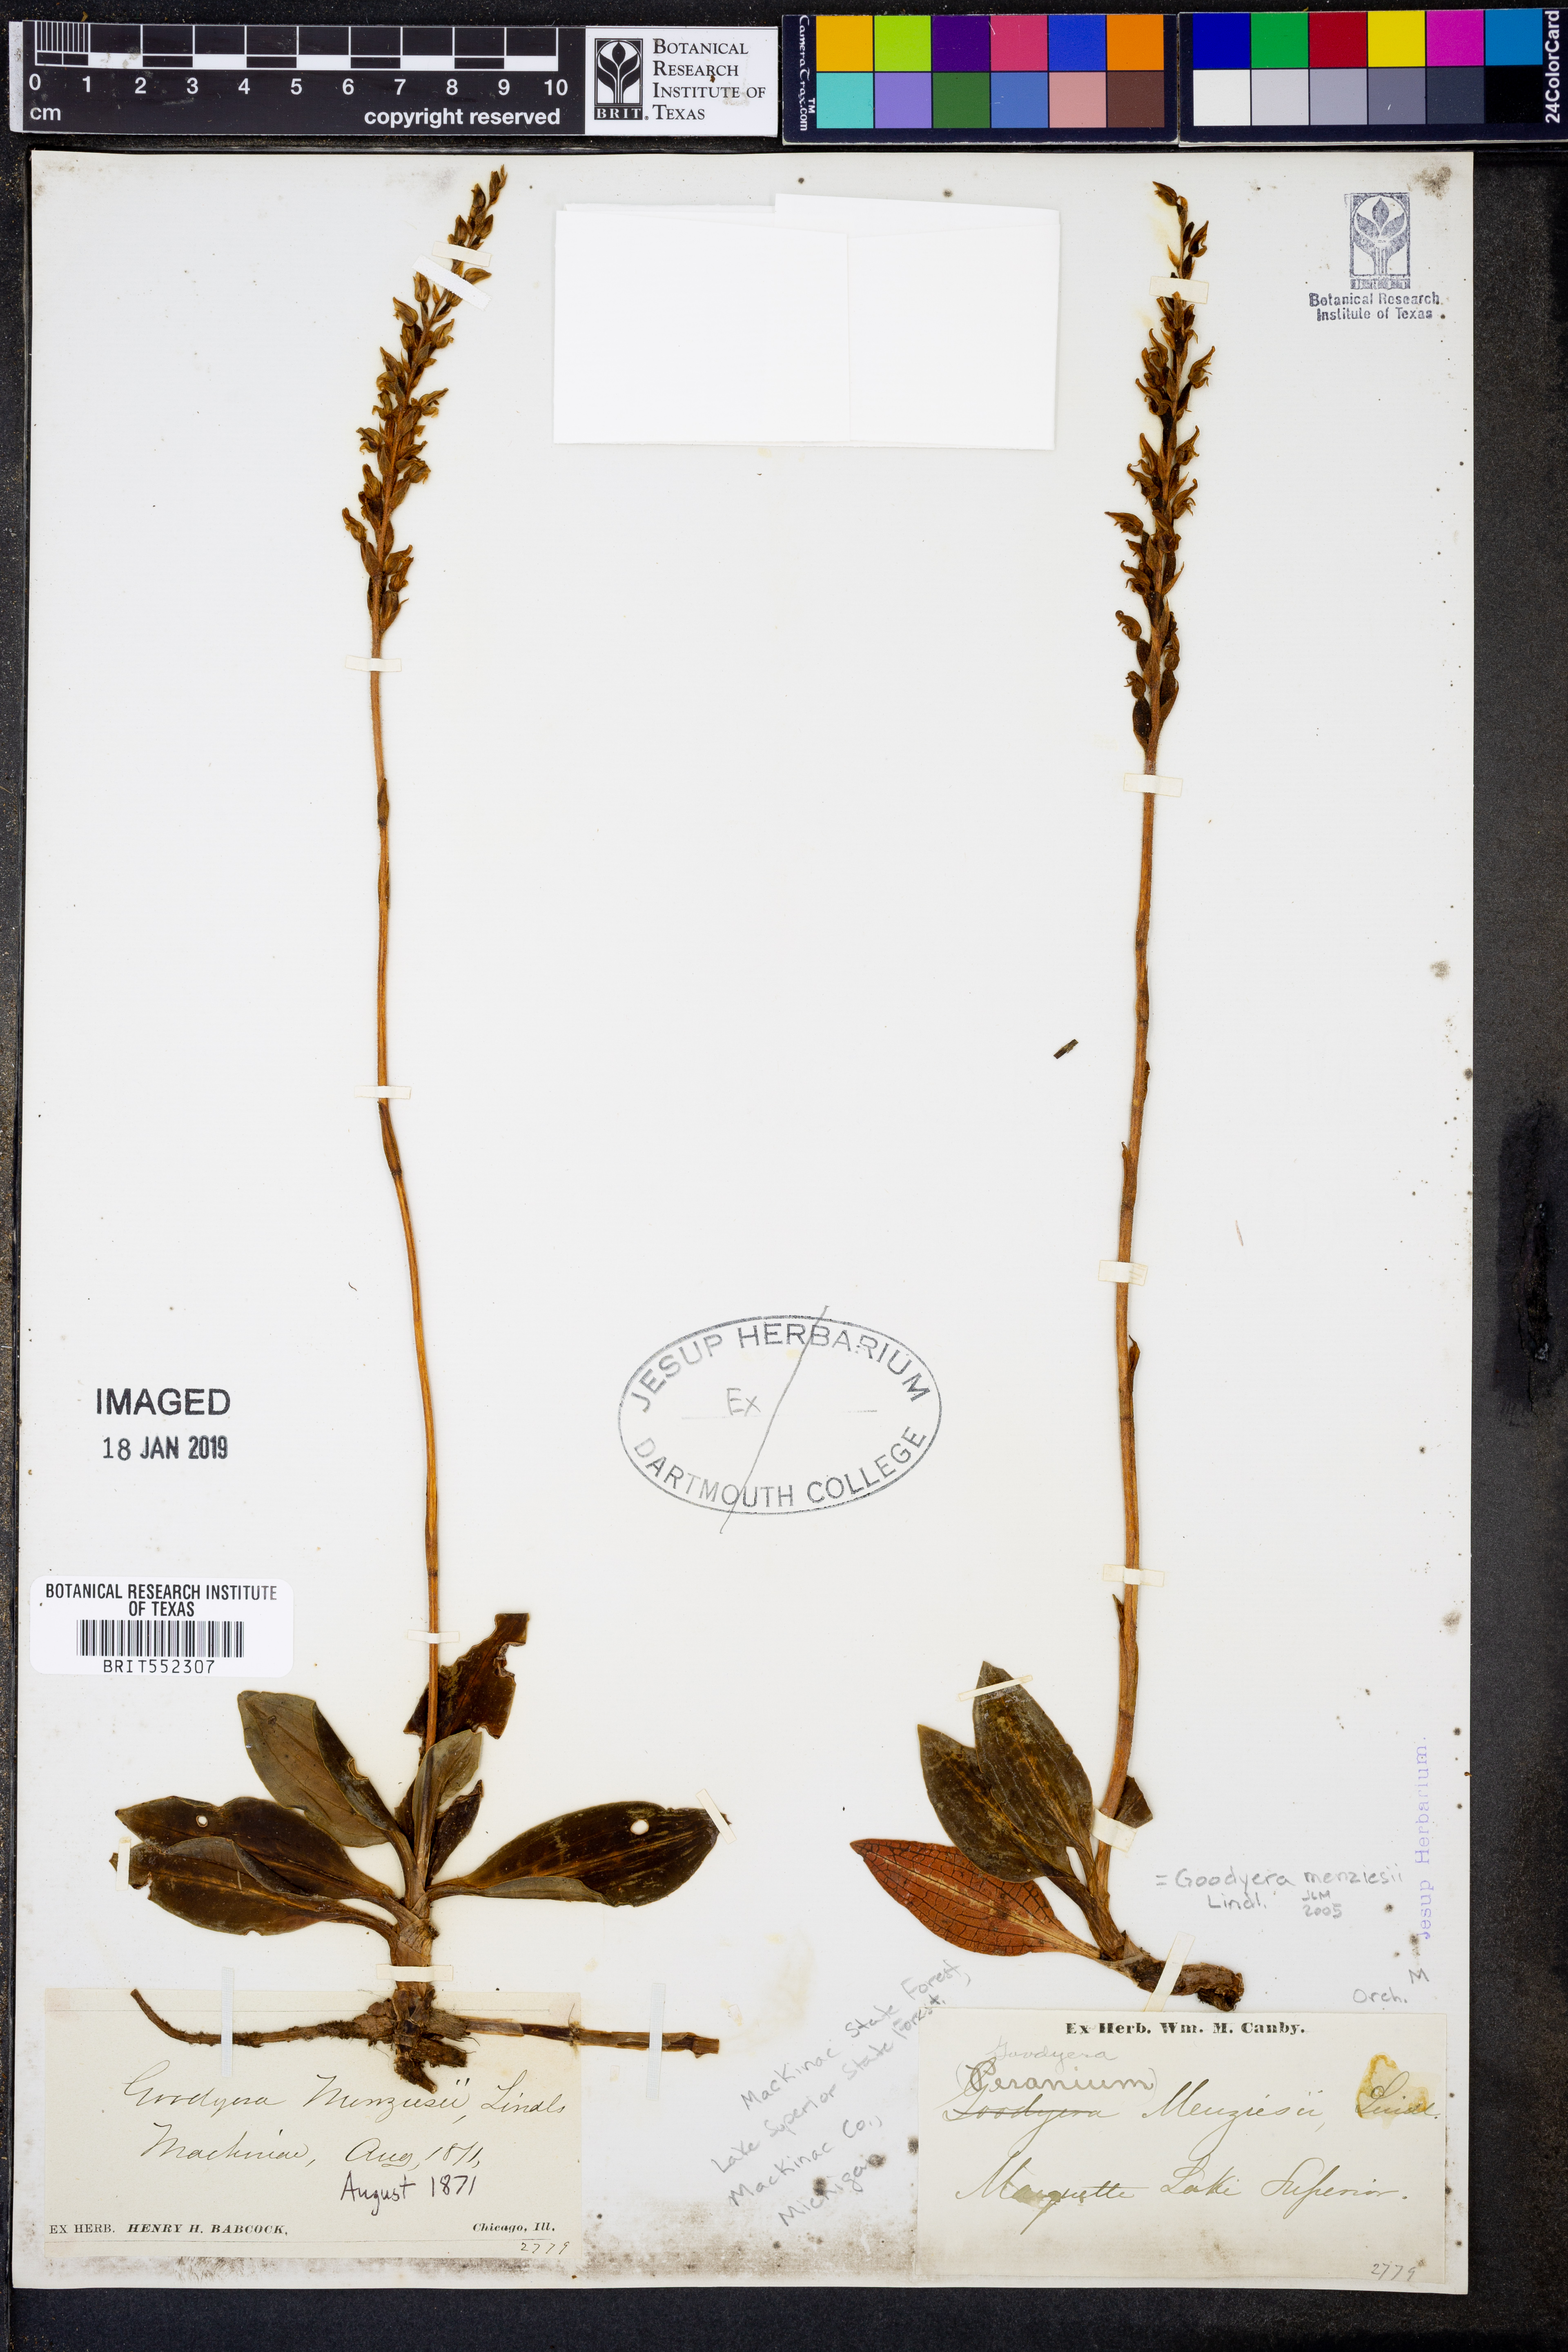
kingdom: Plantae
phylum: Tracheophyta
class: Liliopsida
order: Asparagales
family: Orchidaceae
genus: Goodyera
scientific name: Goodyera oblongifolia
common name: Giant rattlesnake-plantain
